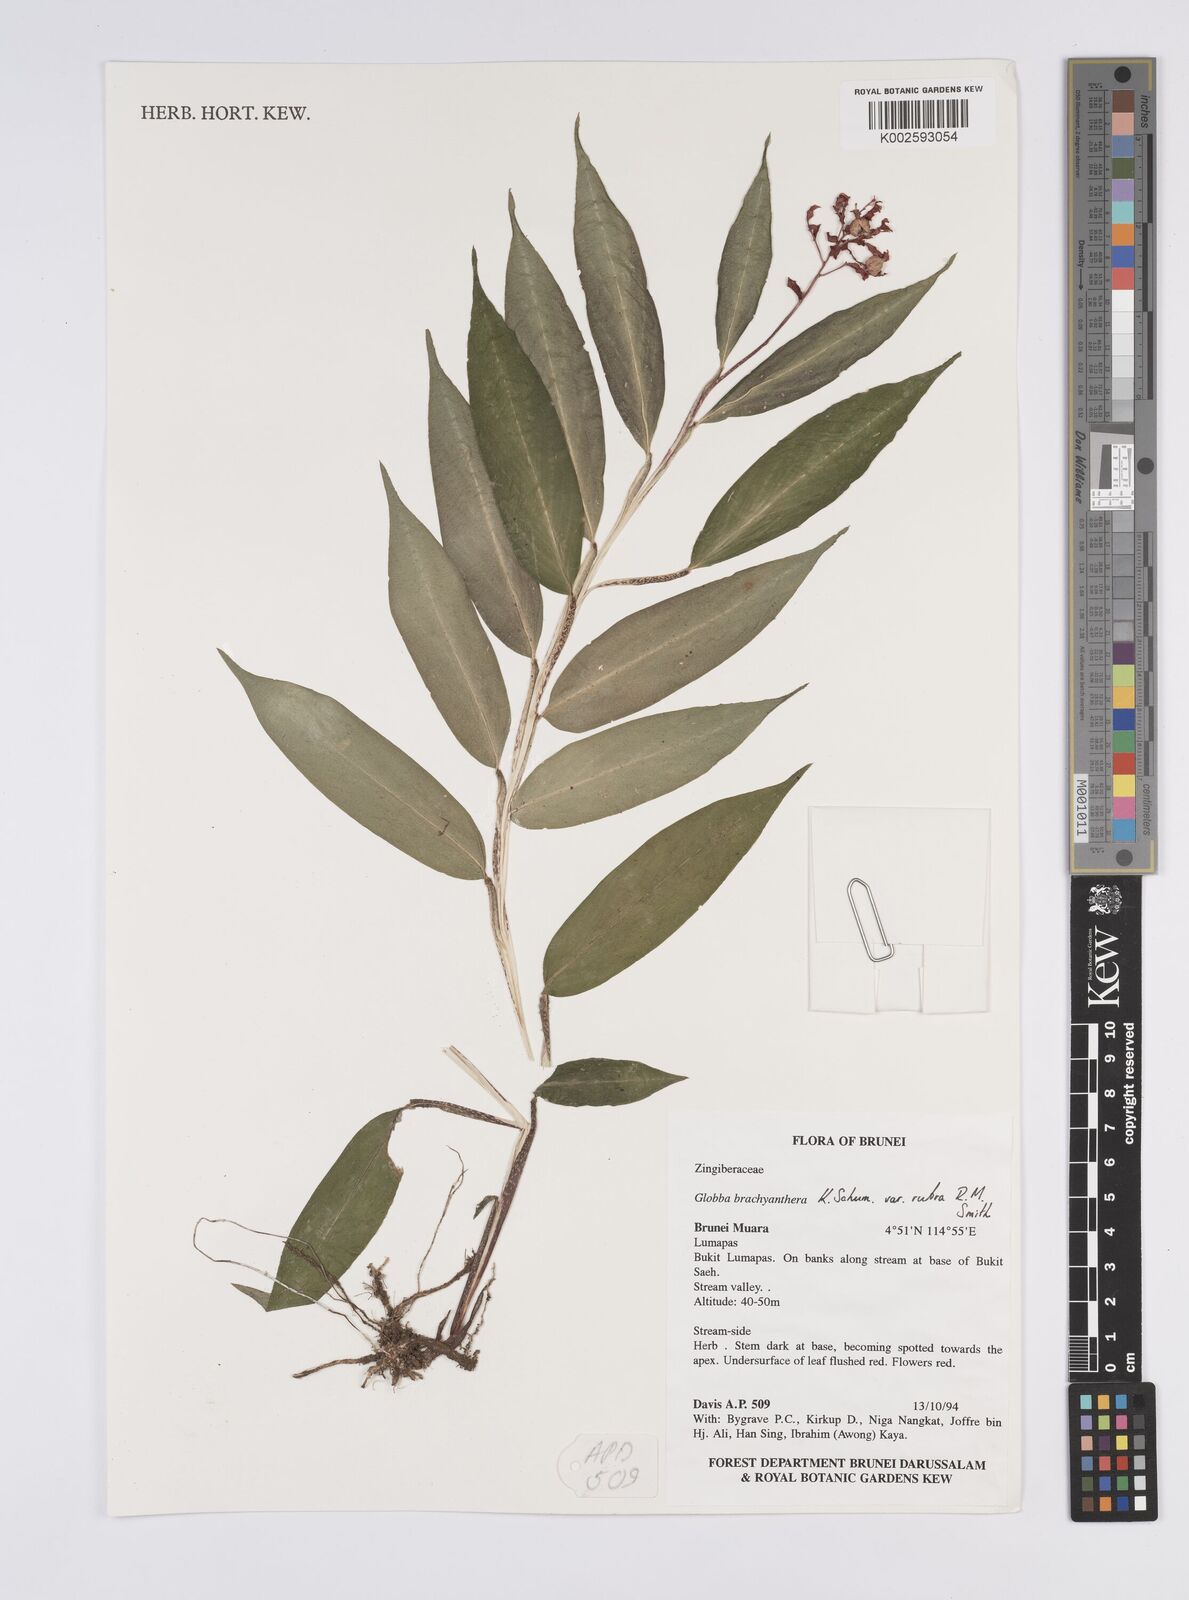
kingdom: Plantae
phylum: Tracheophyta
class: Liliopsida
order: Zingiberales
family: Zingiberaceae
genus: Globba
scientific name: Globba brachyanthera
